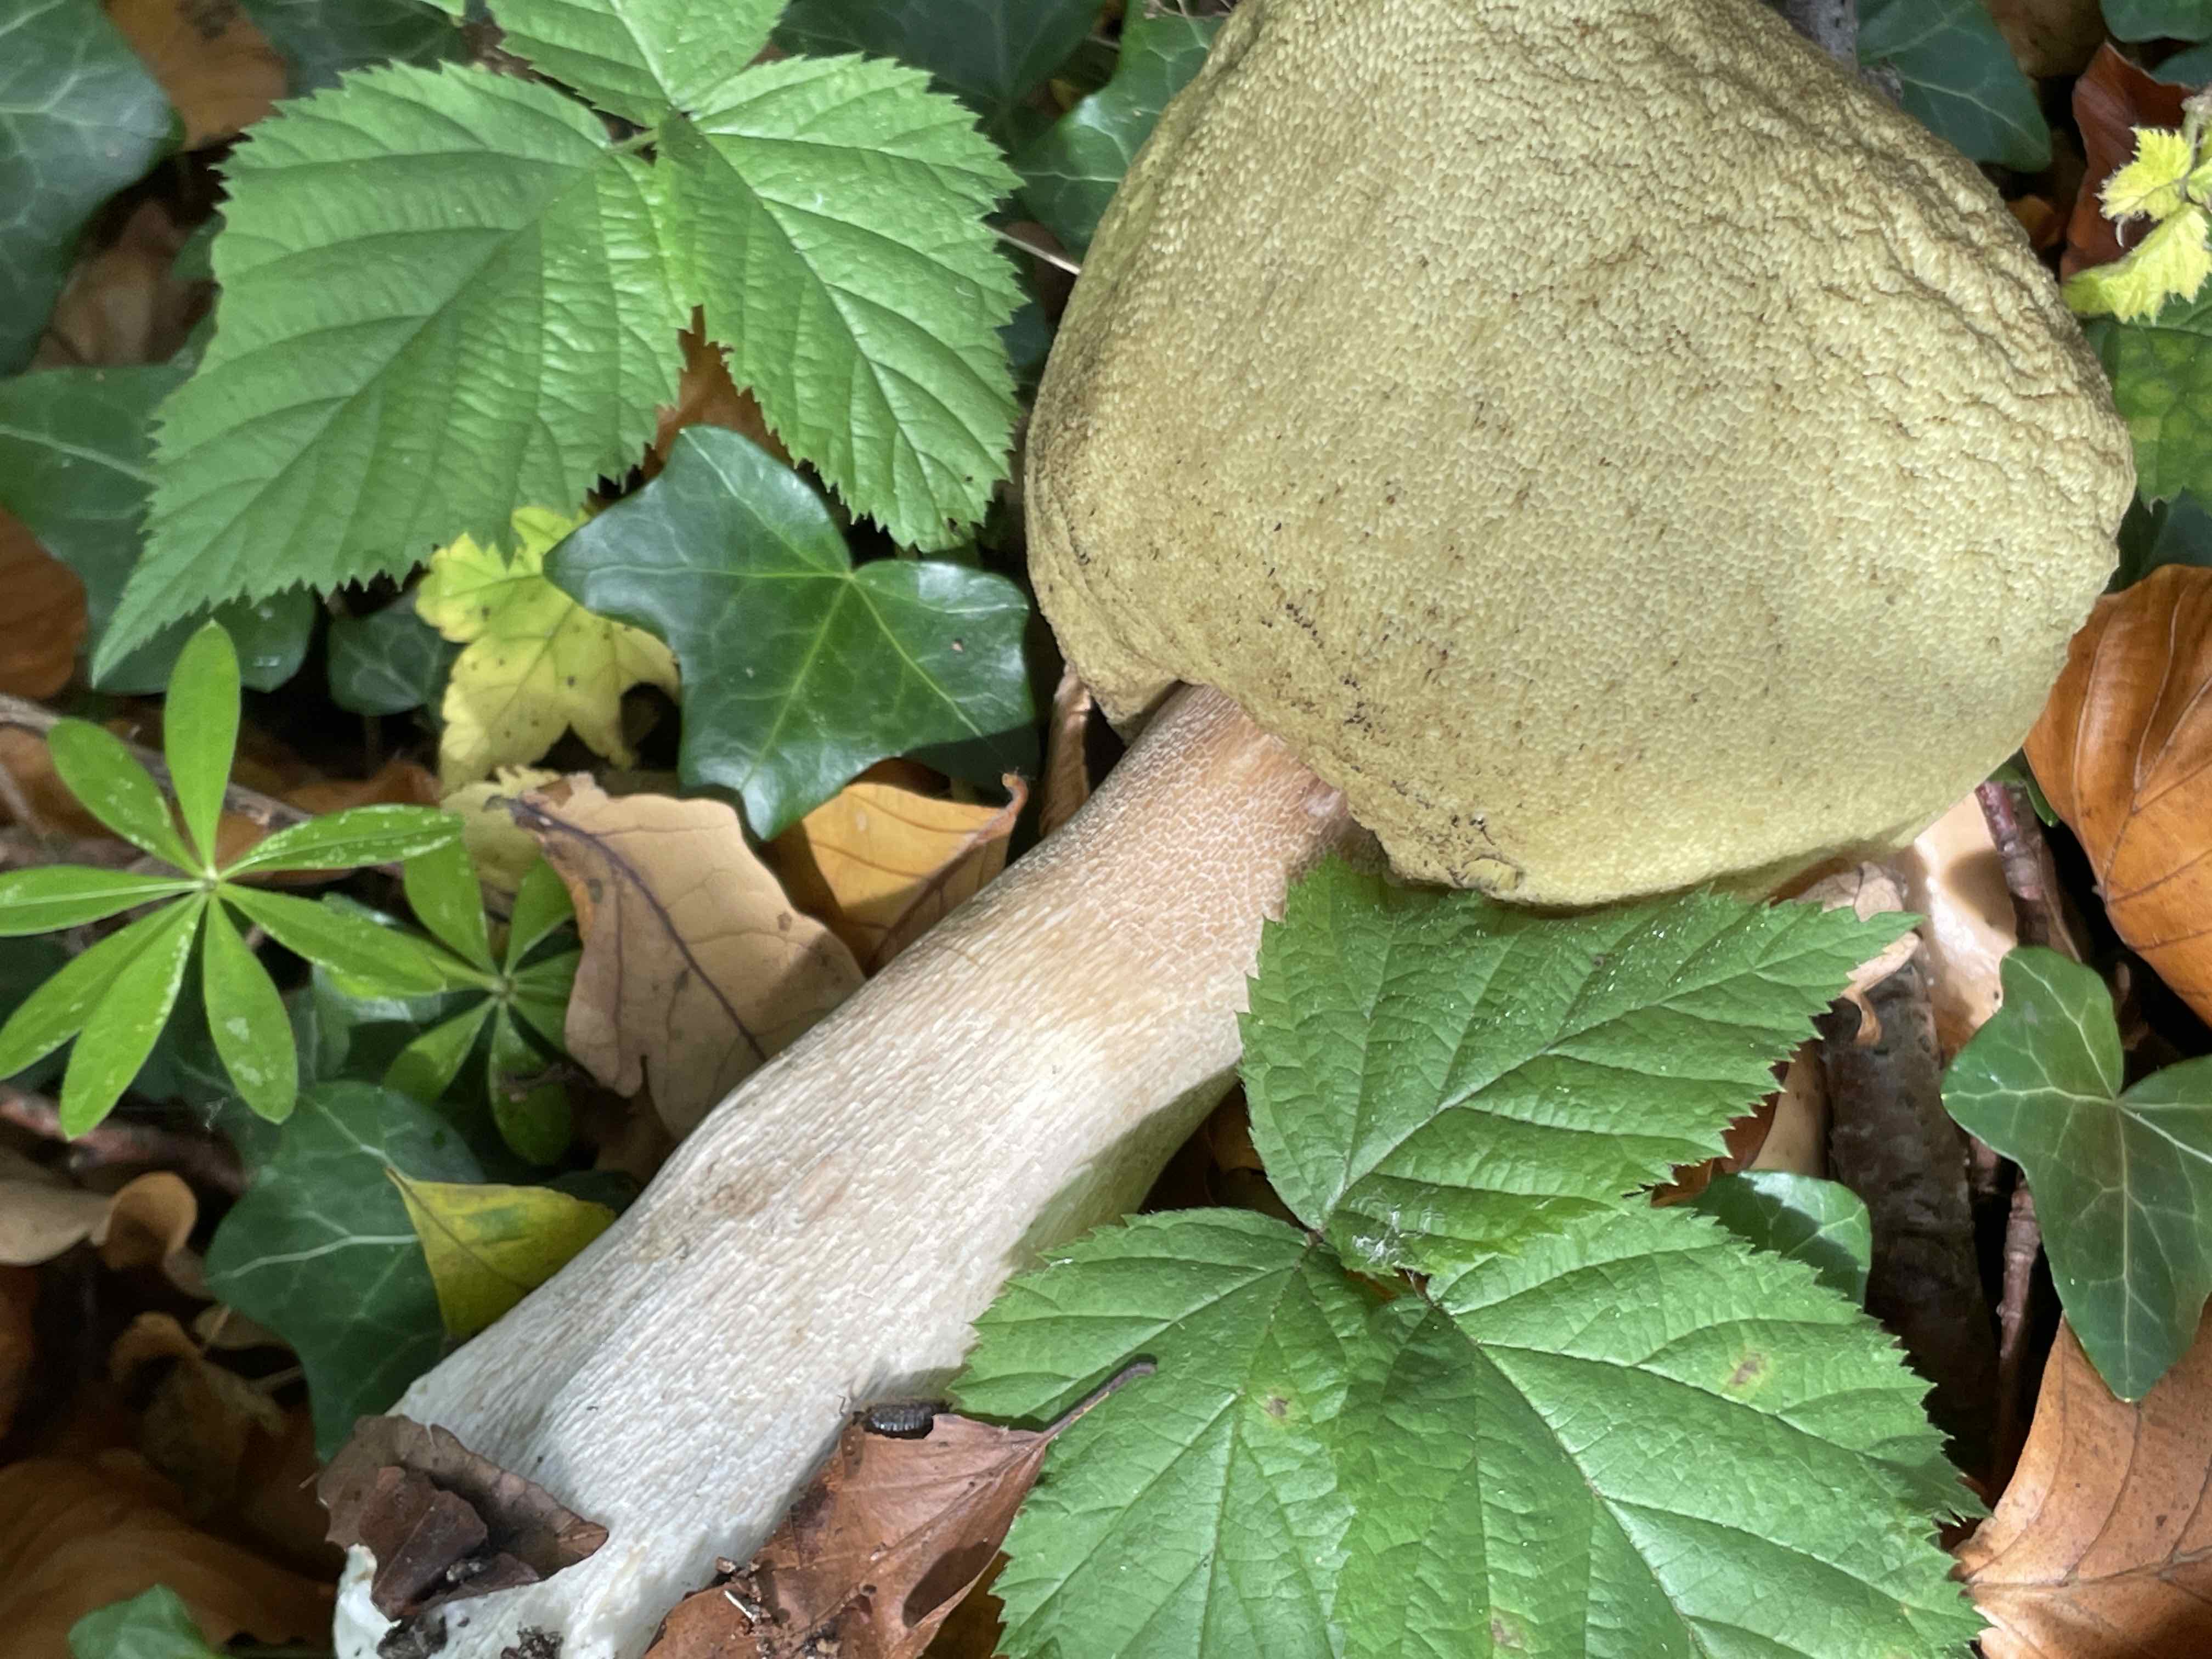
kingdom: Fungi
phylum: Basidiomycota
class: Agaricomycetes
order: Boletales
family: Boletaceae
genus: Boletus
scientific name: Boletus edulis
